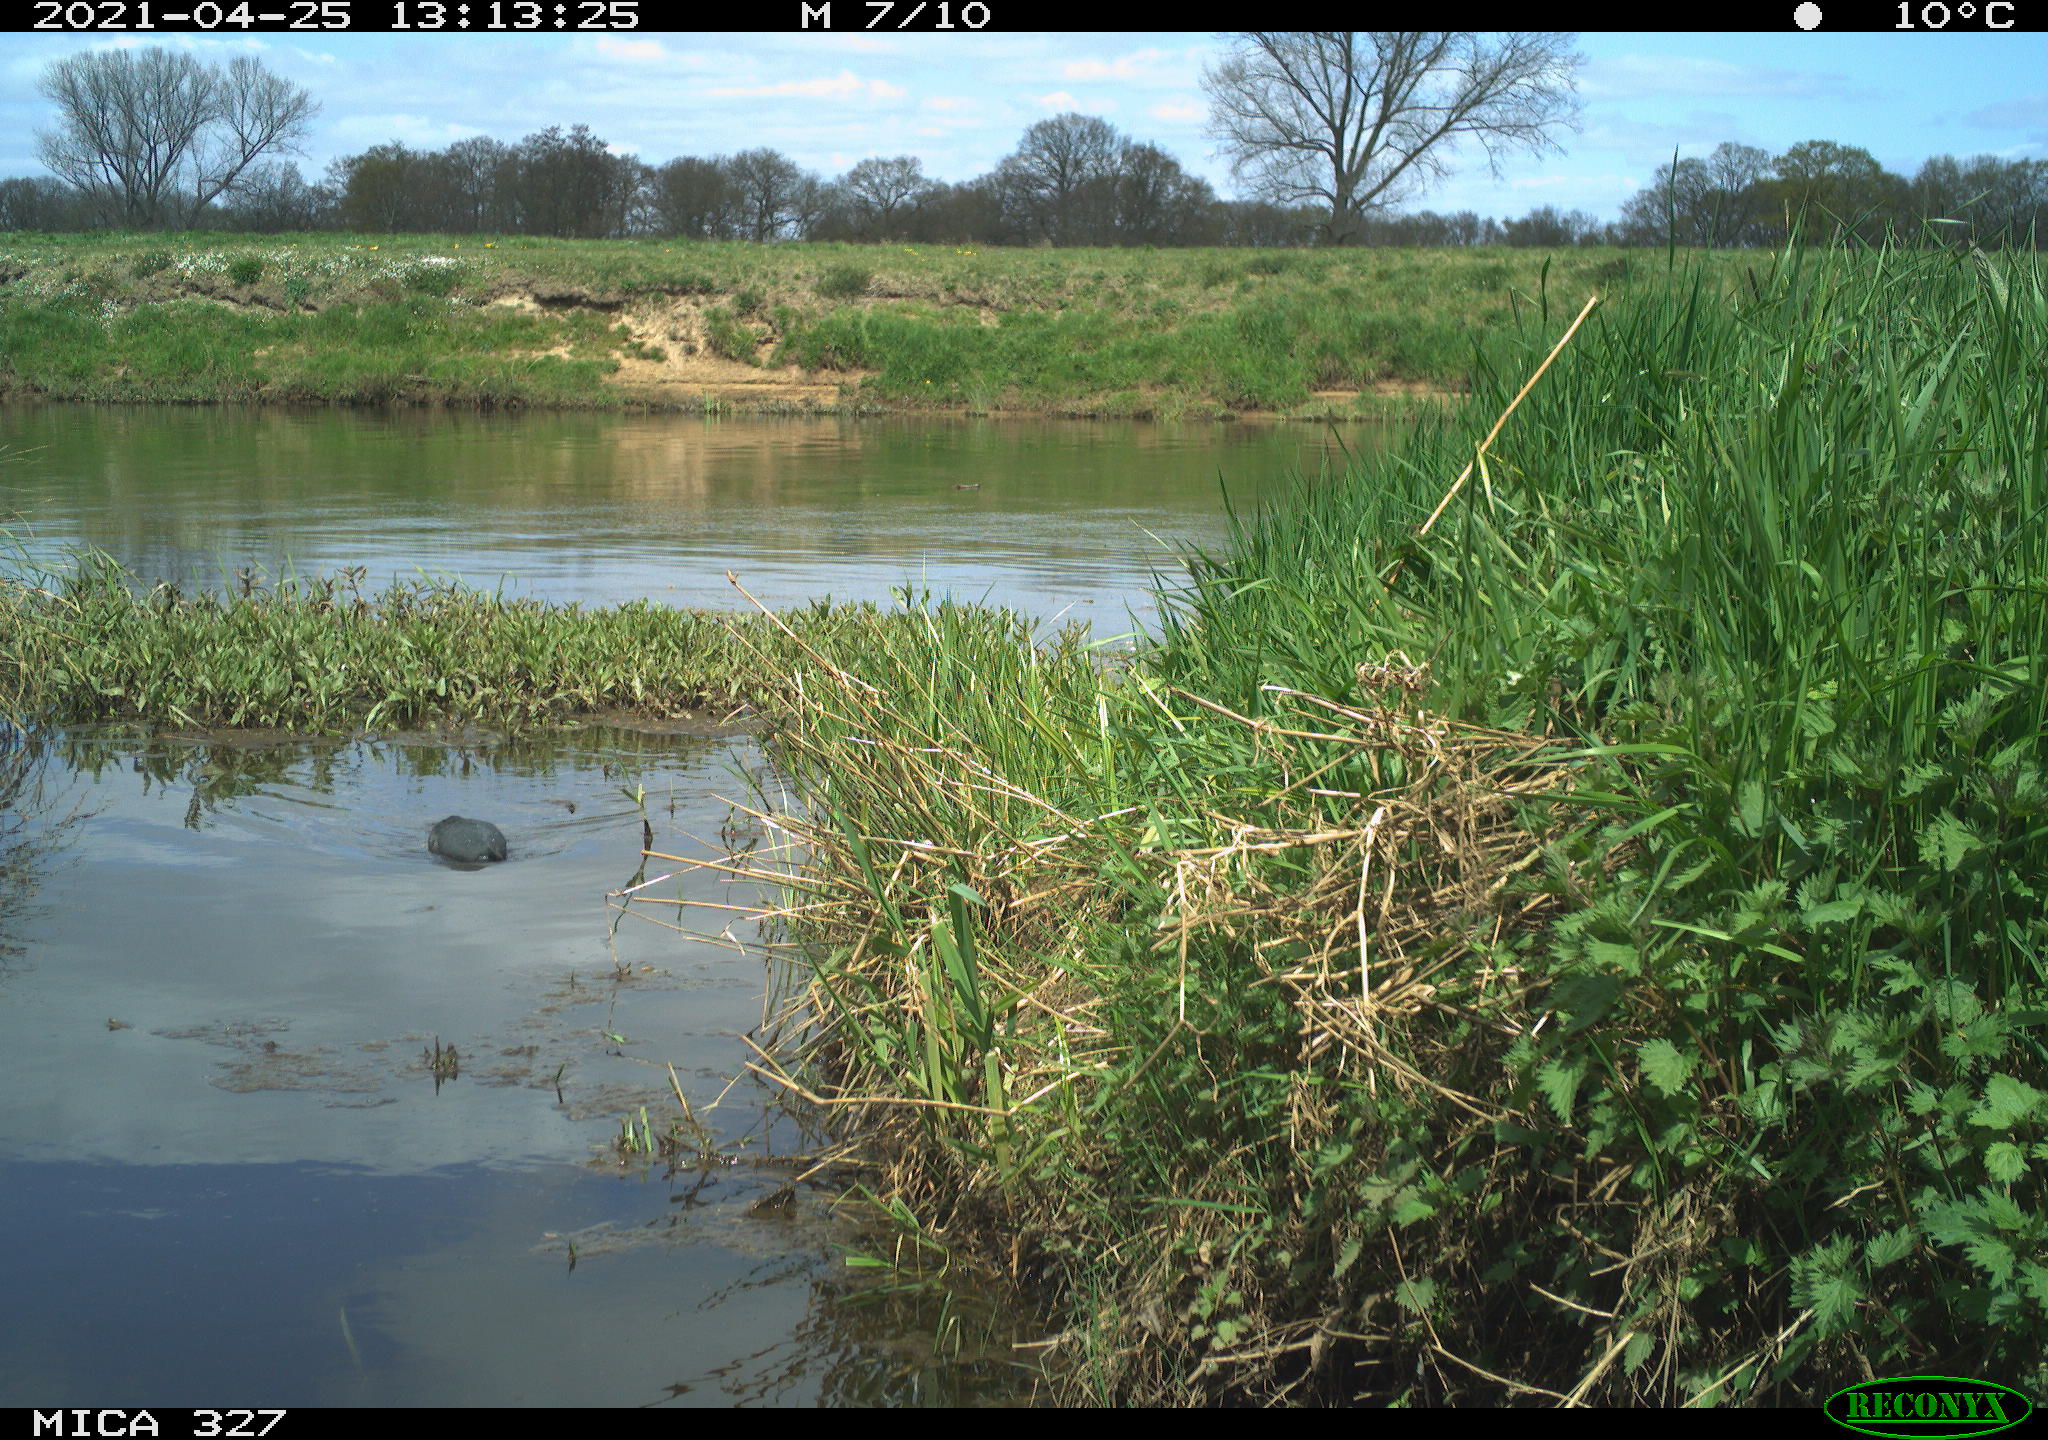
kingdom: Animalia
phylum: Chordata
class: Aves
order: Gruiformes
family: Rallidae
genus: Fulica
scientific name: Fulica atra
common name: Eurasian coot
